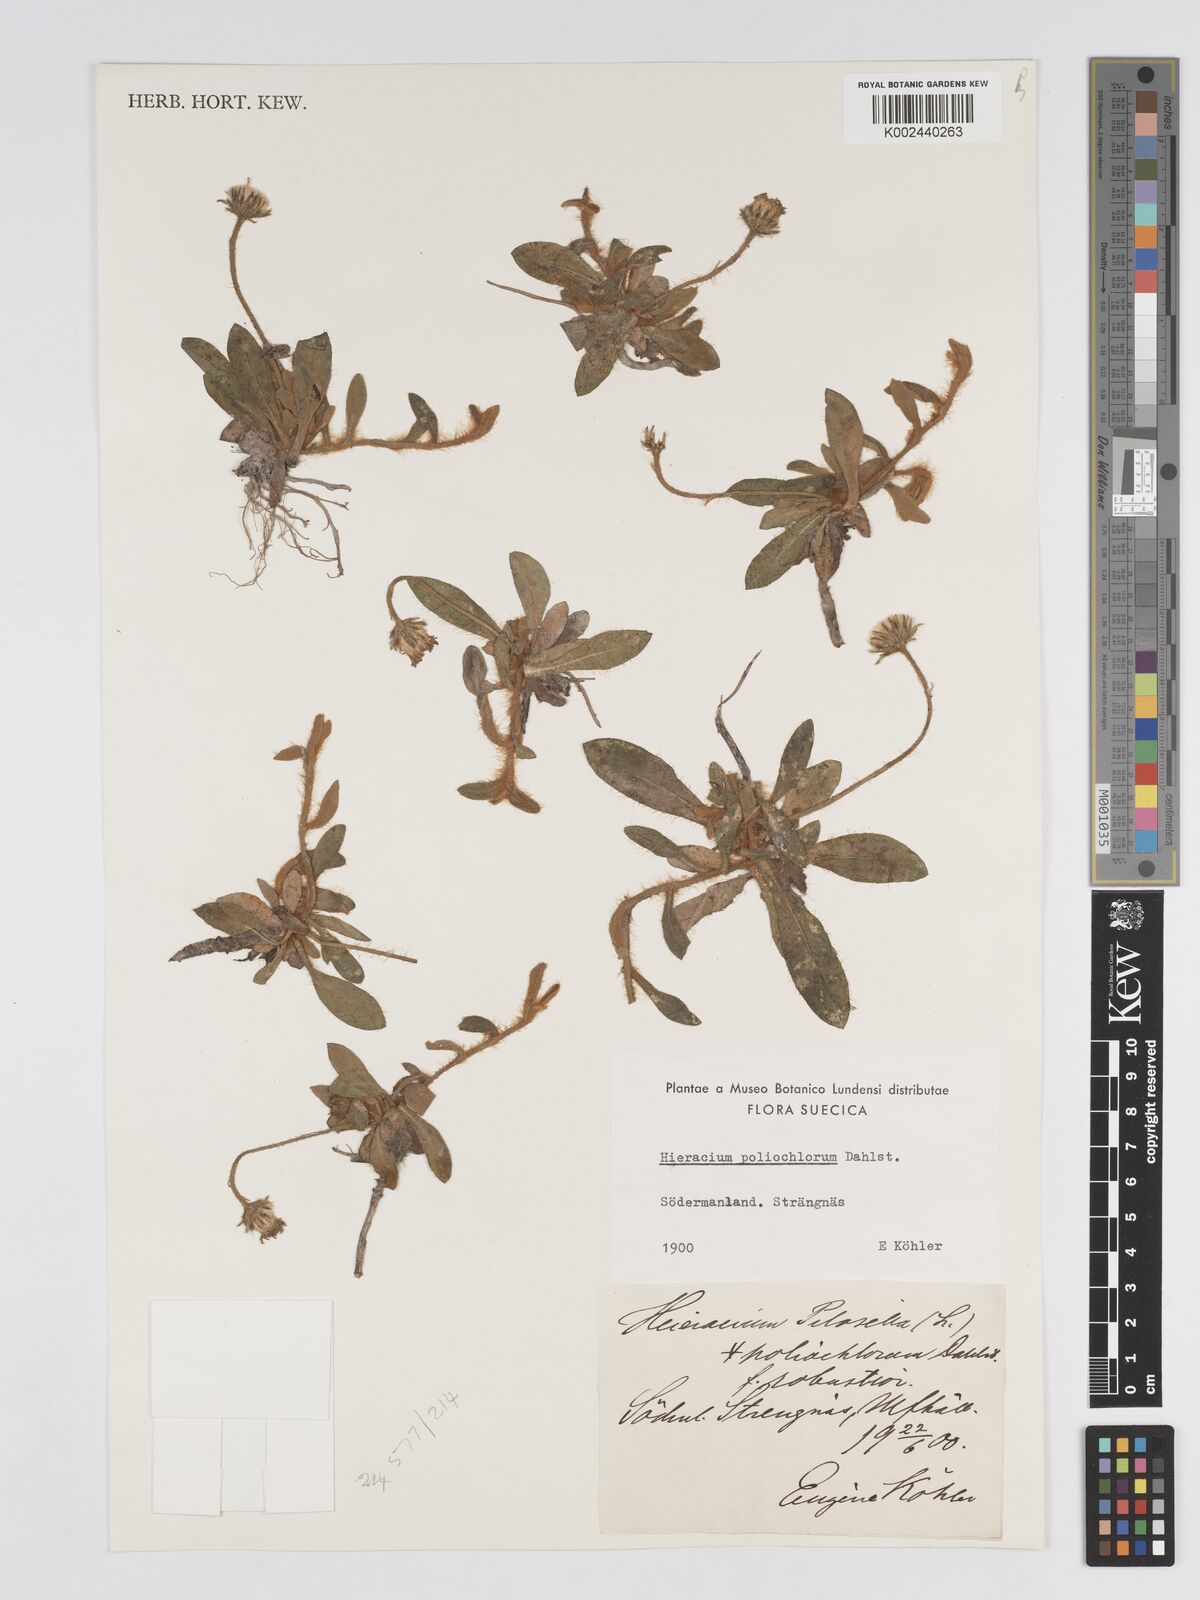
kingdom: Plantae
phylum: Tracheophyta
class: Magnoliopsida
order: Asterales
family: Asteraceae
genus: Pilosella
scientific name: Pilosella officinarum
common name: Mouse-ear hawkweed
